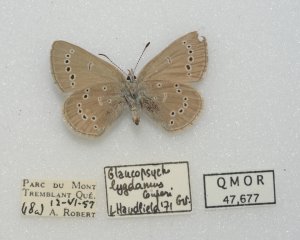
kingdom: Animalia
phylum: Arthropoda
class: Insecta
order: Lepidoptera
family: Lycaenidae
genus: Glaucopsyche
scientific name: Glaucopsyche lygdamus
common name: Silvery Blue
